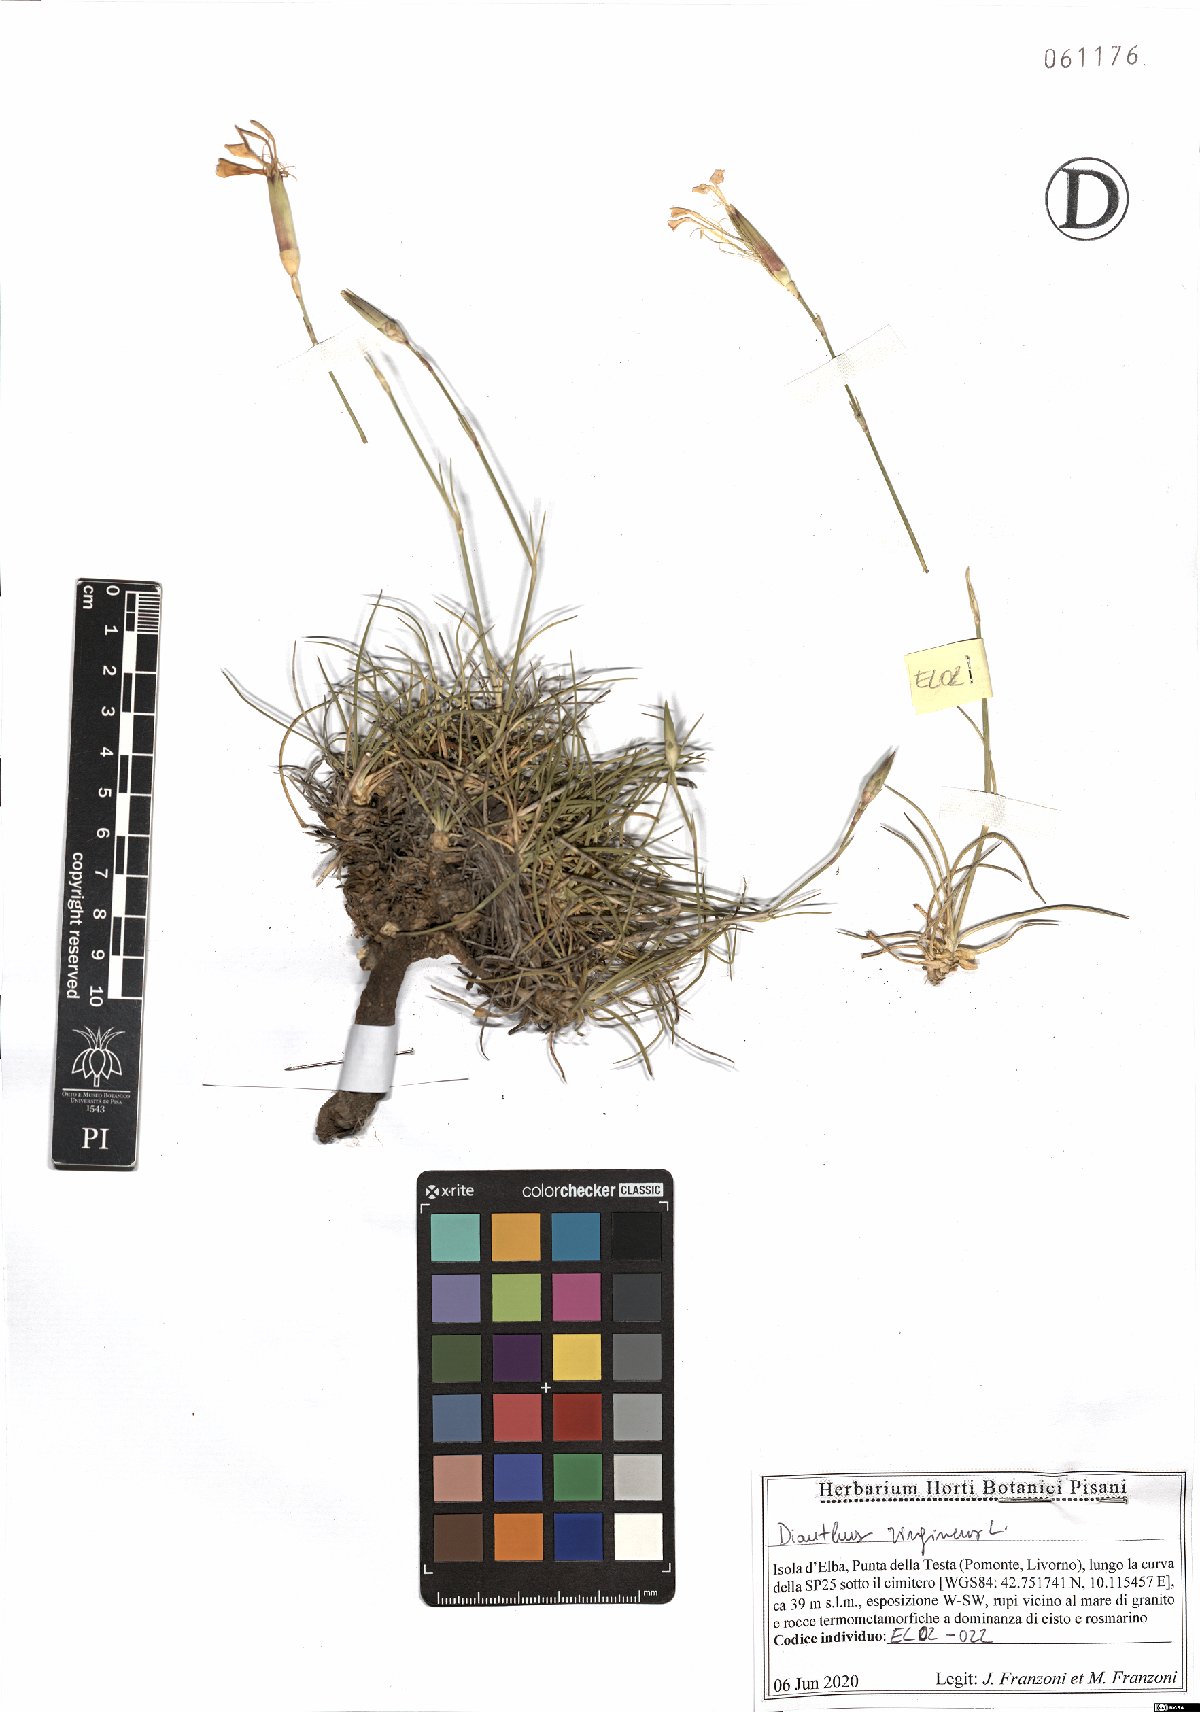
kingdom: Plantae
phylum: Tracheophyta
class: Magnoliopsida
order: Caryophyllales
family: Caryophyllaceae
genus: Dianthus
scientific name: Dianthus virgineus
